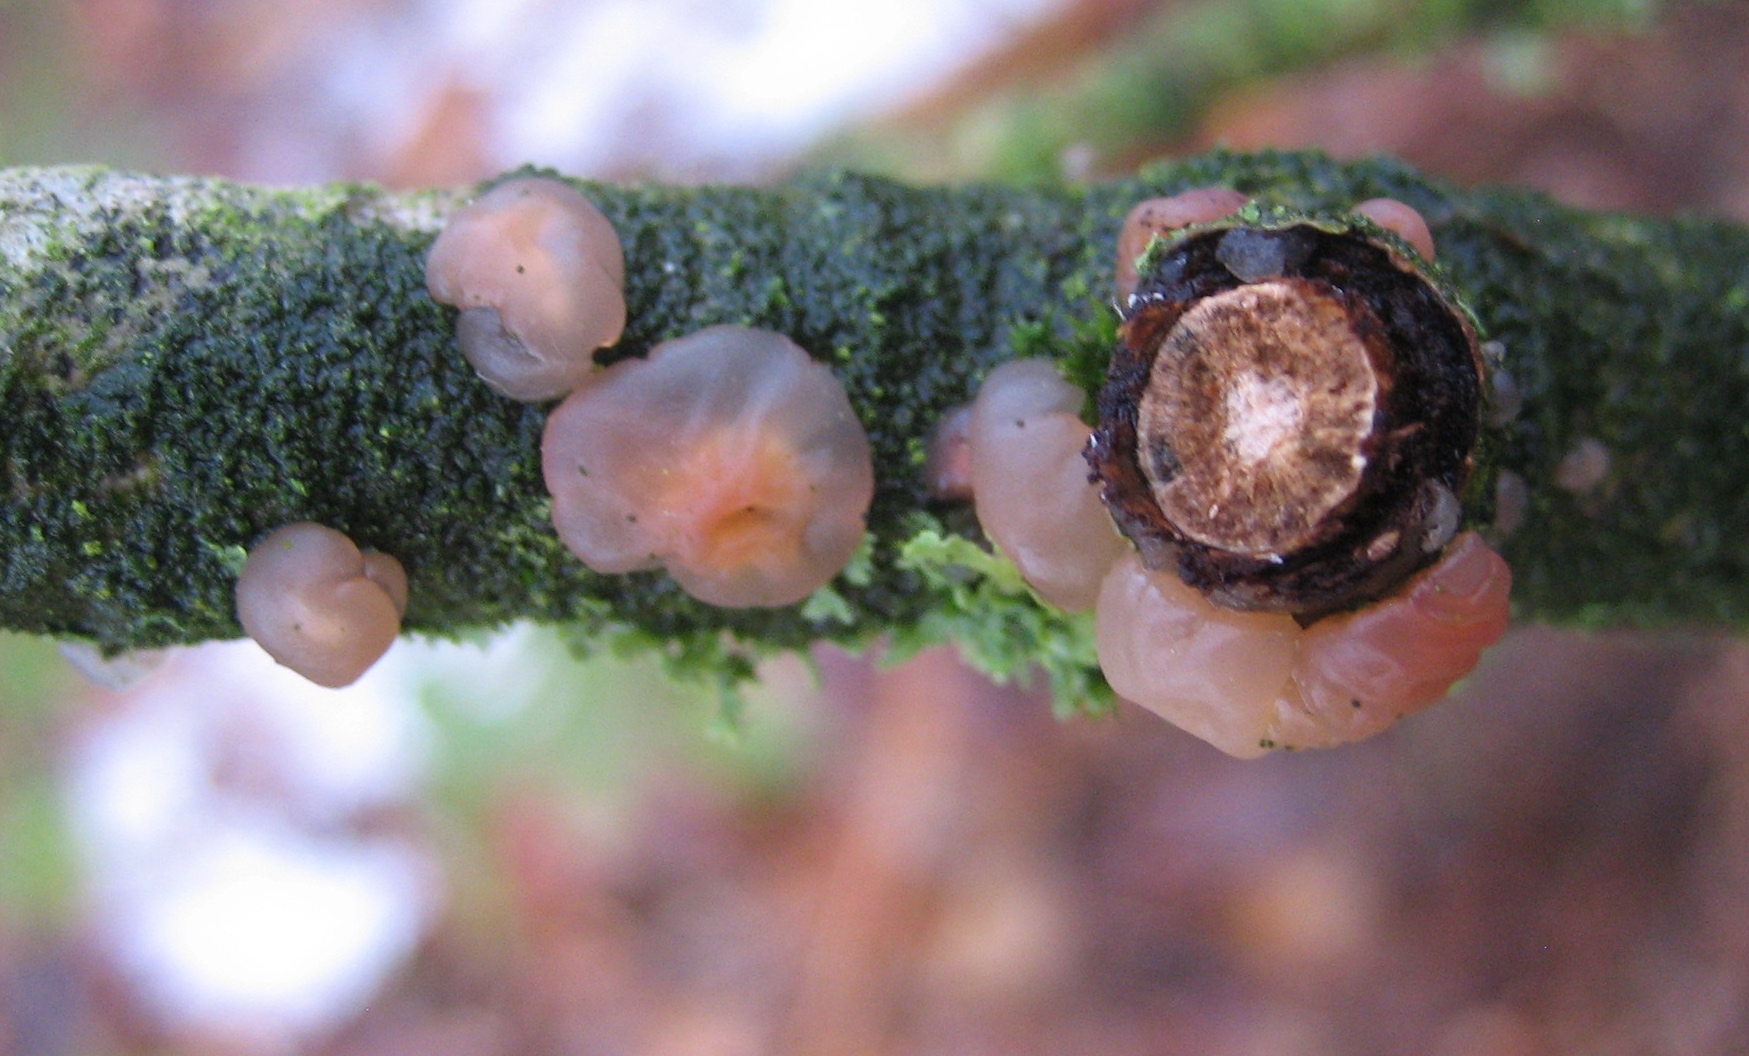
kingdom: Fungi
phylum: Basidiomycota
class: Agaricomycetes
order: Auriculariales
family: Hyaloriaceae
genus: Myxarium
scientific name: Myxarium hyalinum
